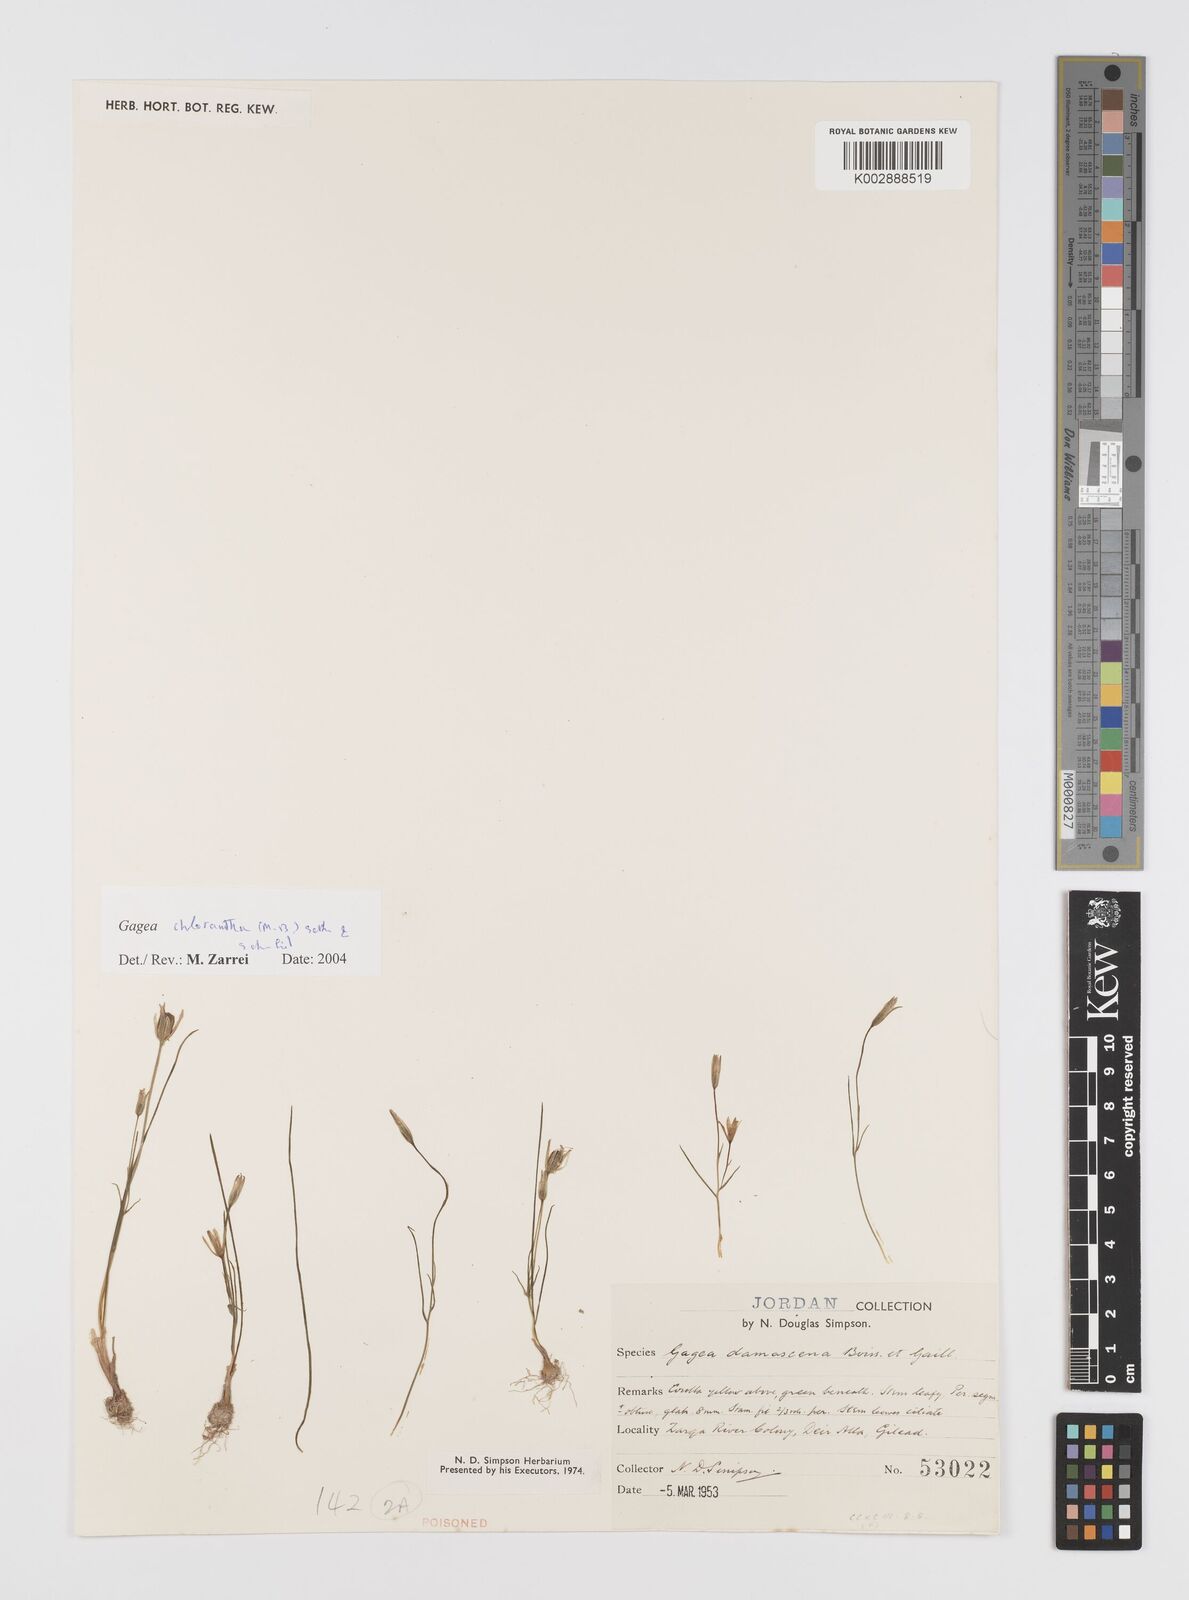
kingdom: Plantae
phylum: Tracheophyta
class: Liliopsida
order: Liliales
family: Liliaceae
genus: Gagea
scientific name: Gagea chlorantha
